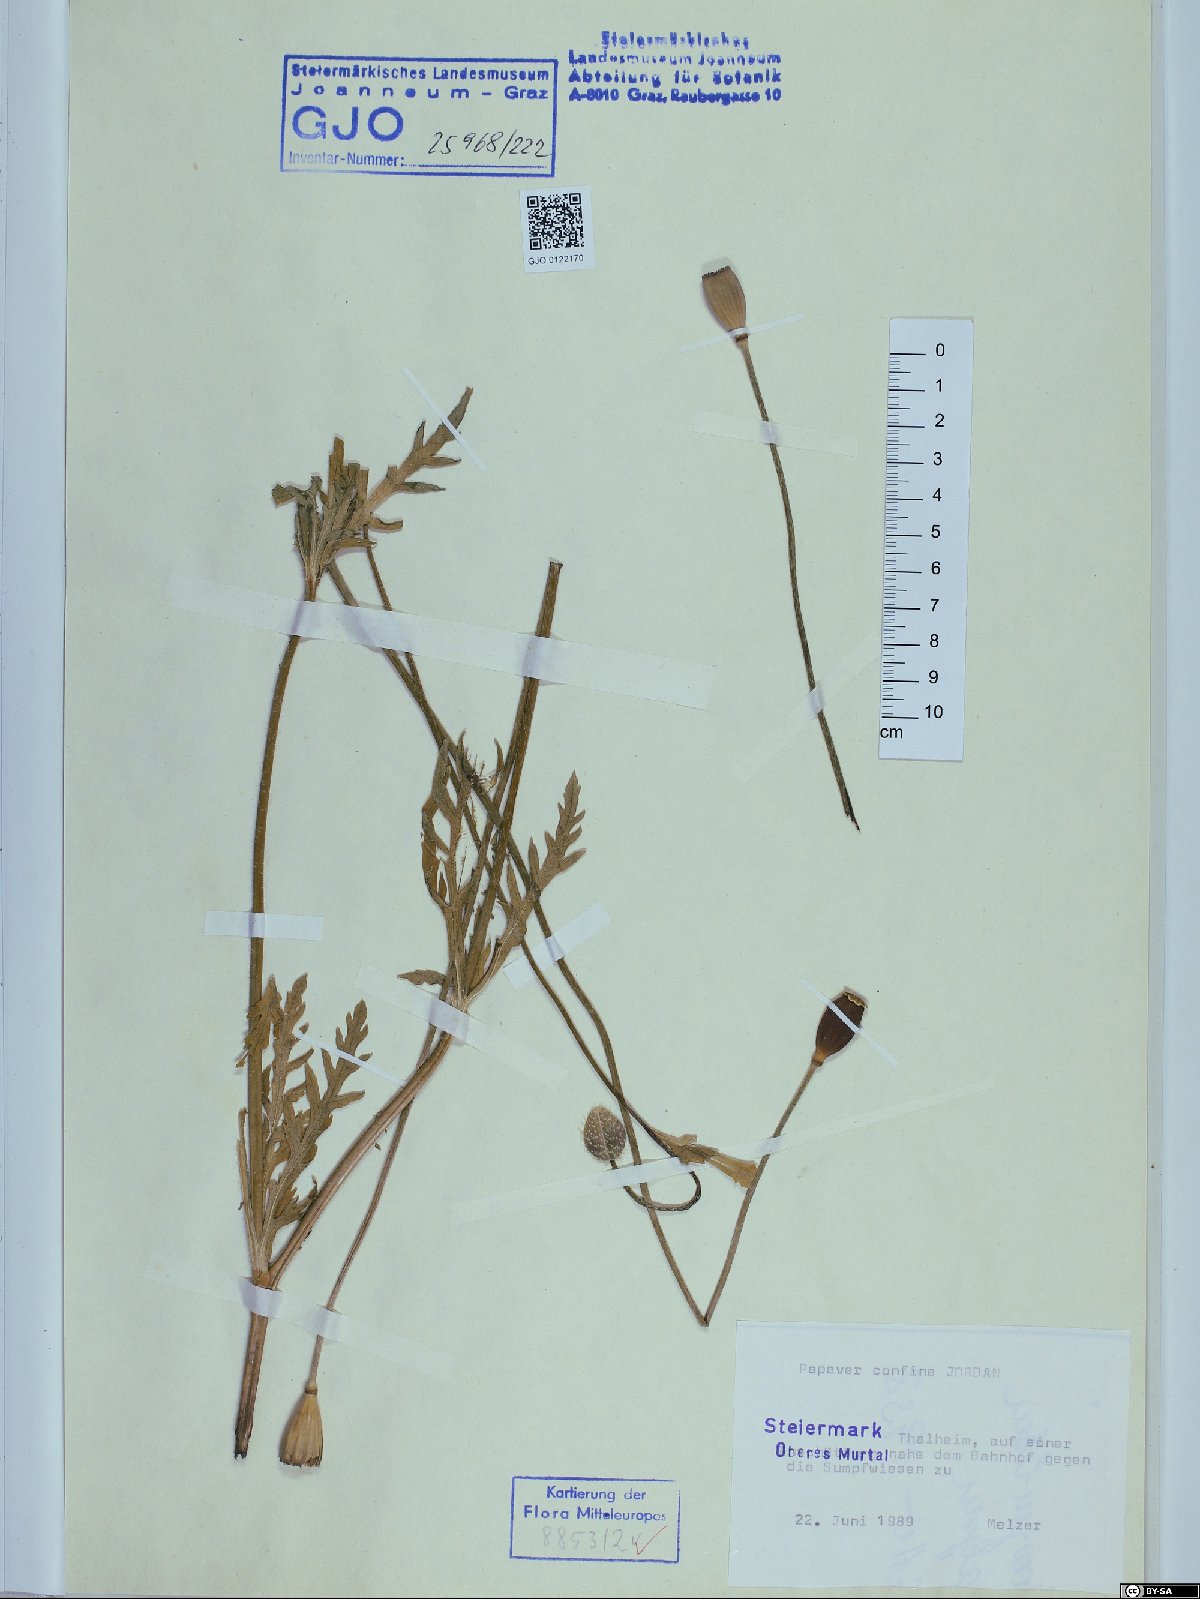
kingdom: Plantae
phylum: Tracheophyta
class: Magnoliopsida
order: Ranunculales
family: Papaveraceae
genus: Papaver
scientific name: Papaver confine
